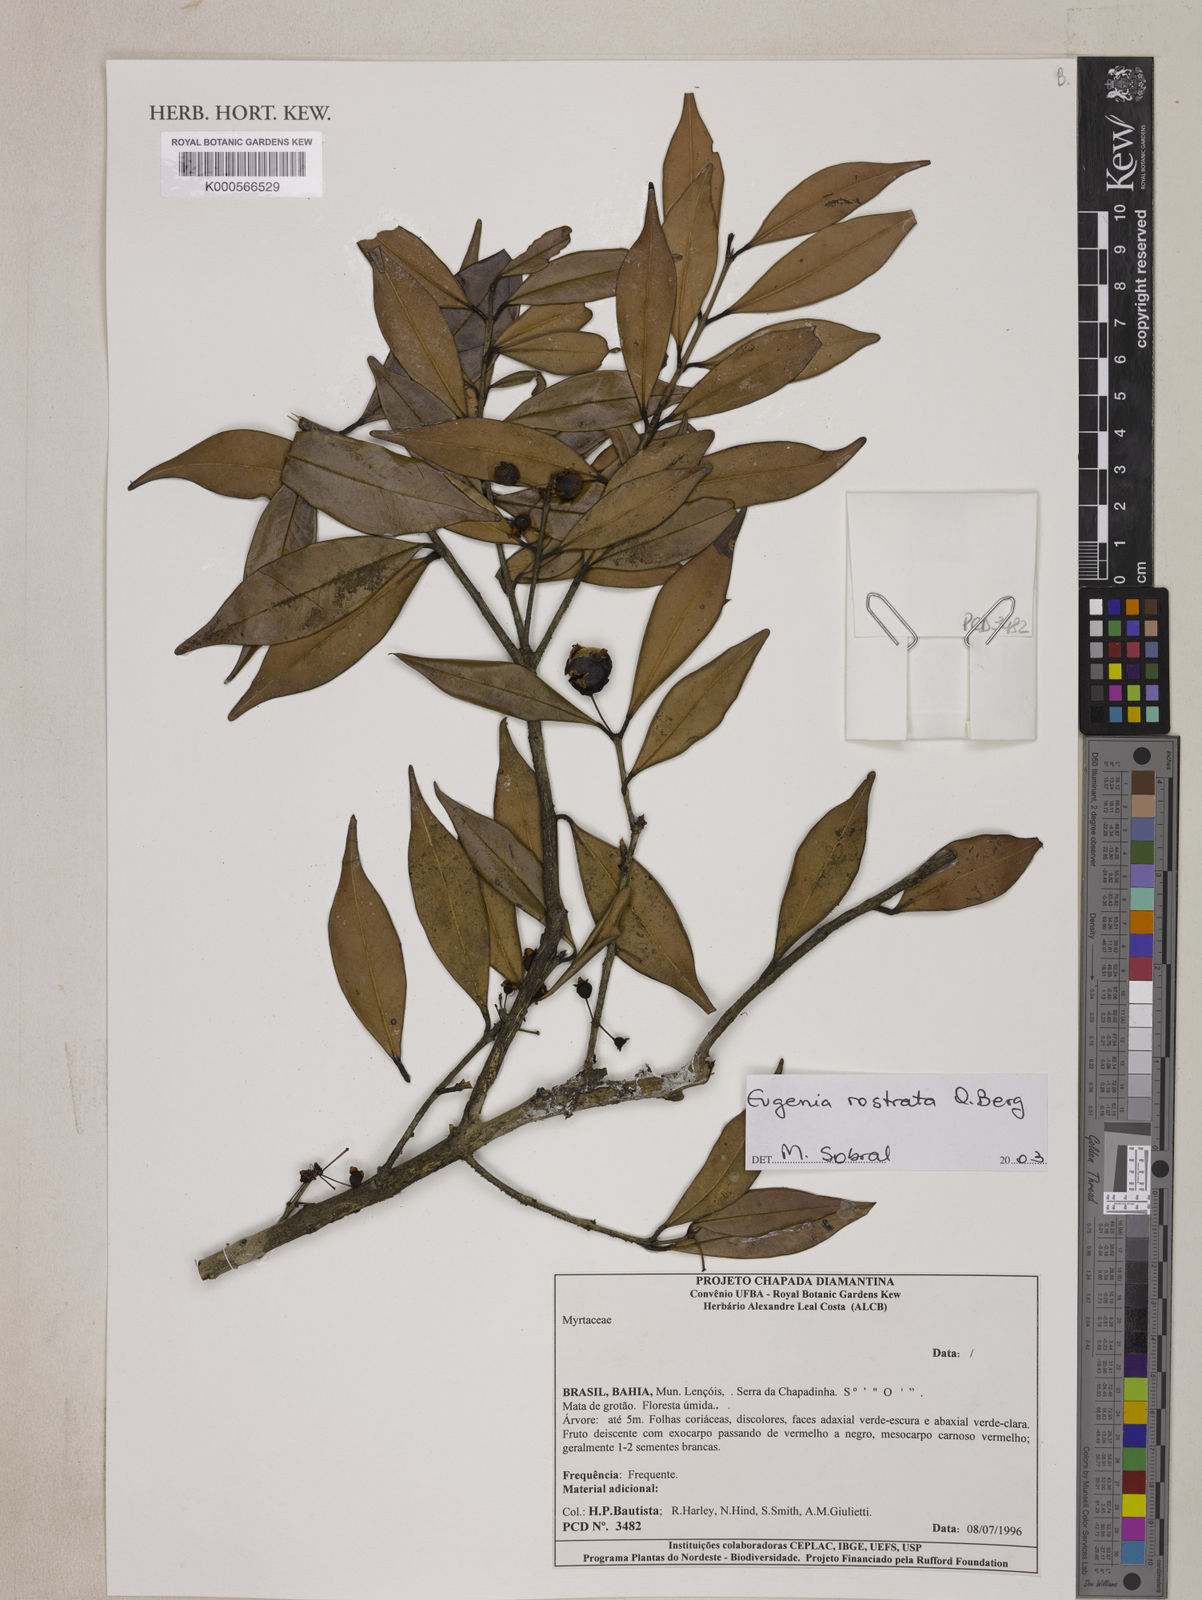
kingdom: Plantae
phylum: Tracheophyta
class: Magnoliopsida
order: Myrtales
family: Myrtaceae
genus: Eugenia
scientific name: Eugenia zuccarinii
